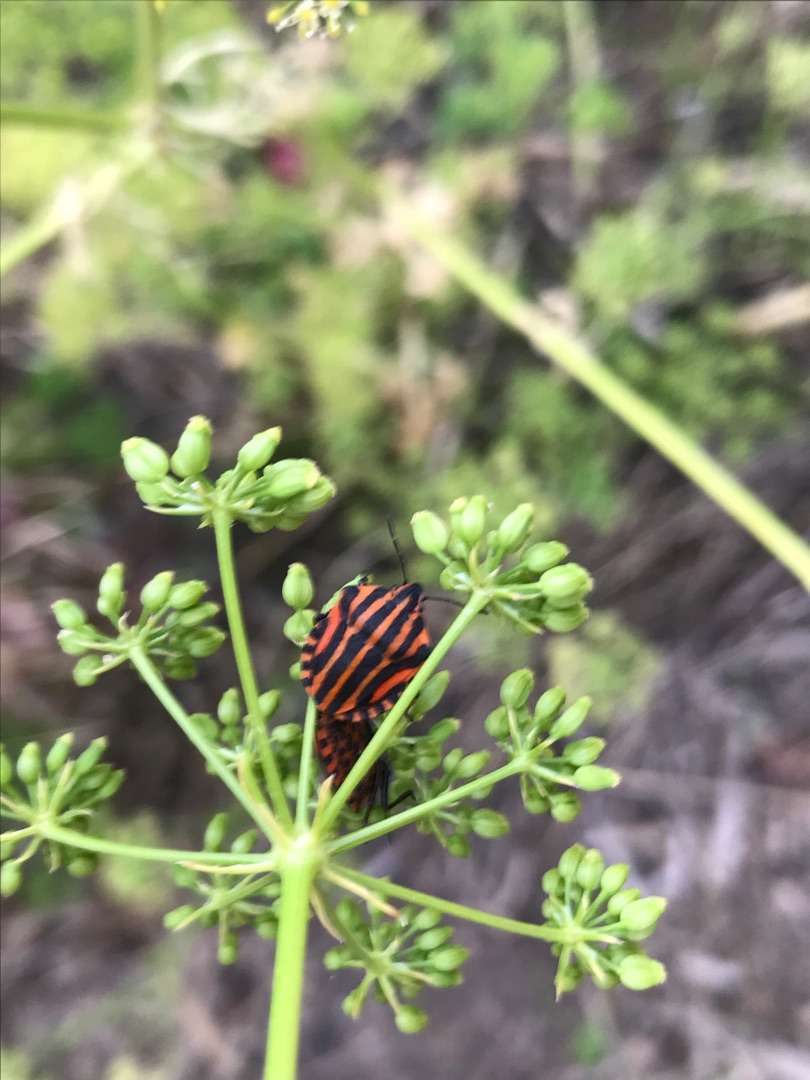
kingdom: Animalia
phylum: Arthropoda
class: Insecta
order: Hemiptera
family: Pentatomidae
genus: Graphosoma
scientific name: Graphosoma italicum
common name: Stribetæge
